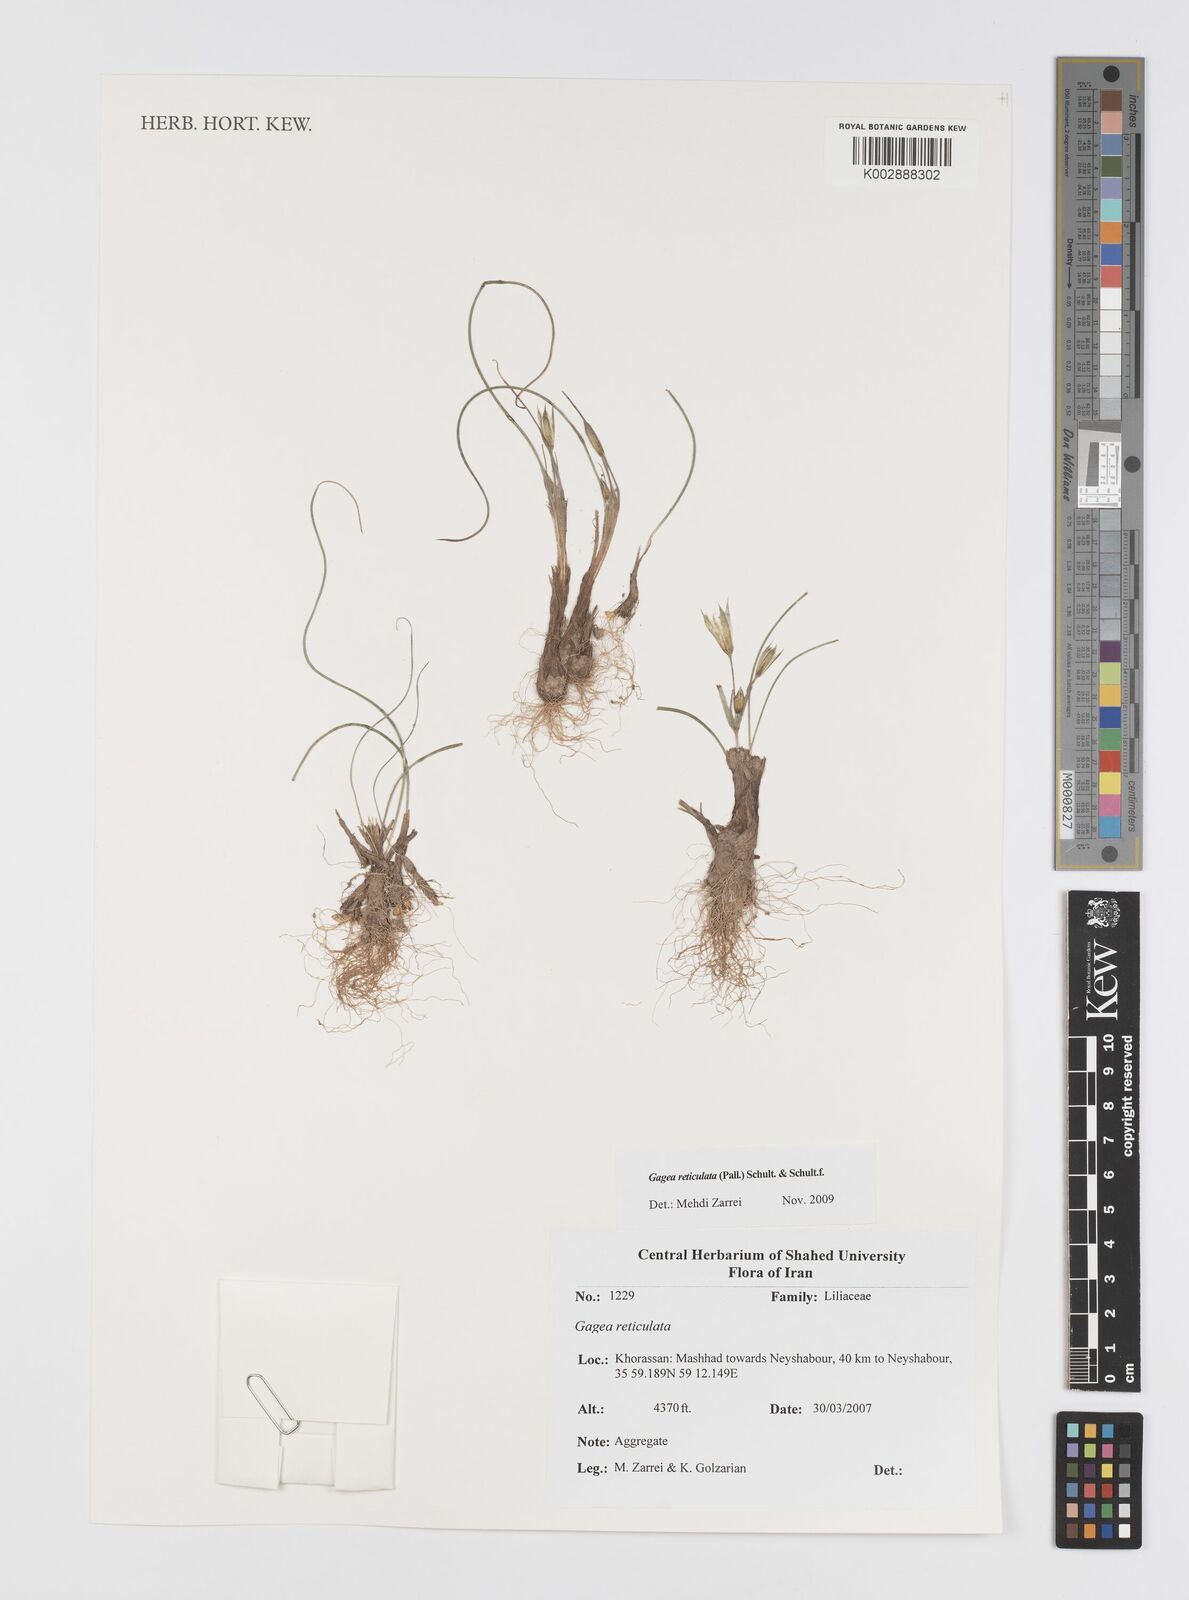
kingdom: Plantae
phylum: Tracheophyta
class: Liliopsida
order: Liliales
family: Liliaceae
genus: Gagea
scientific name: Gagea reticulata
